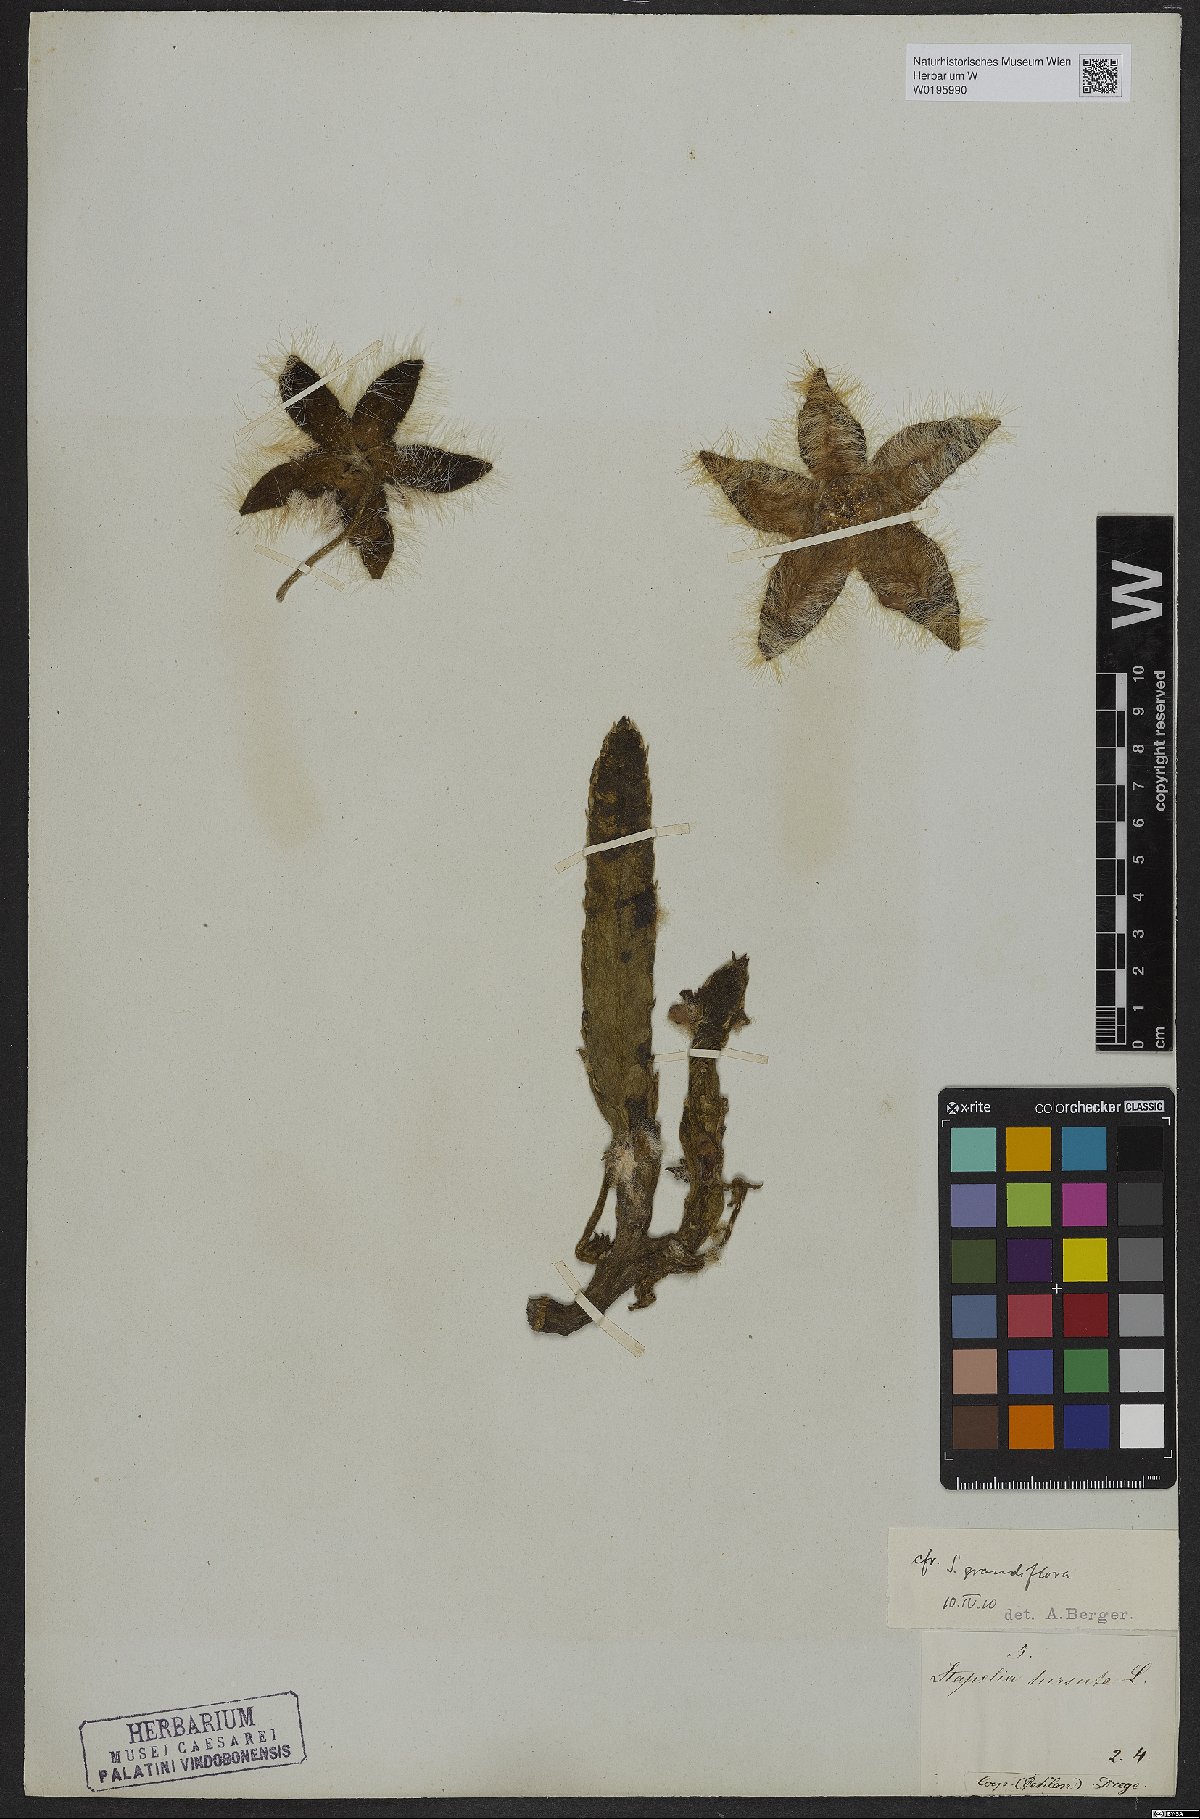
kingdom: Plantae
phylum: Tracheophyta
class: Magnoliopsida
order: Gentianales
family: Apocynaceae
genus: Ceropegia
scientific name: Ceropegia grandiflora
